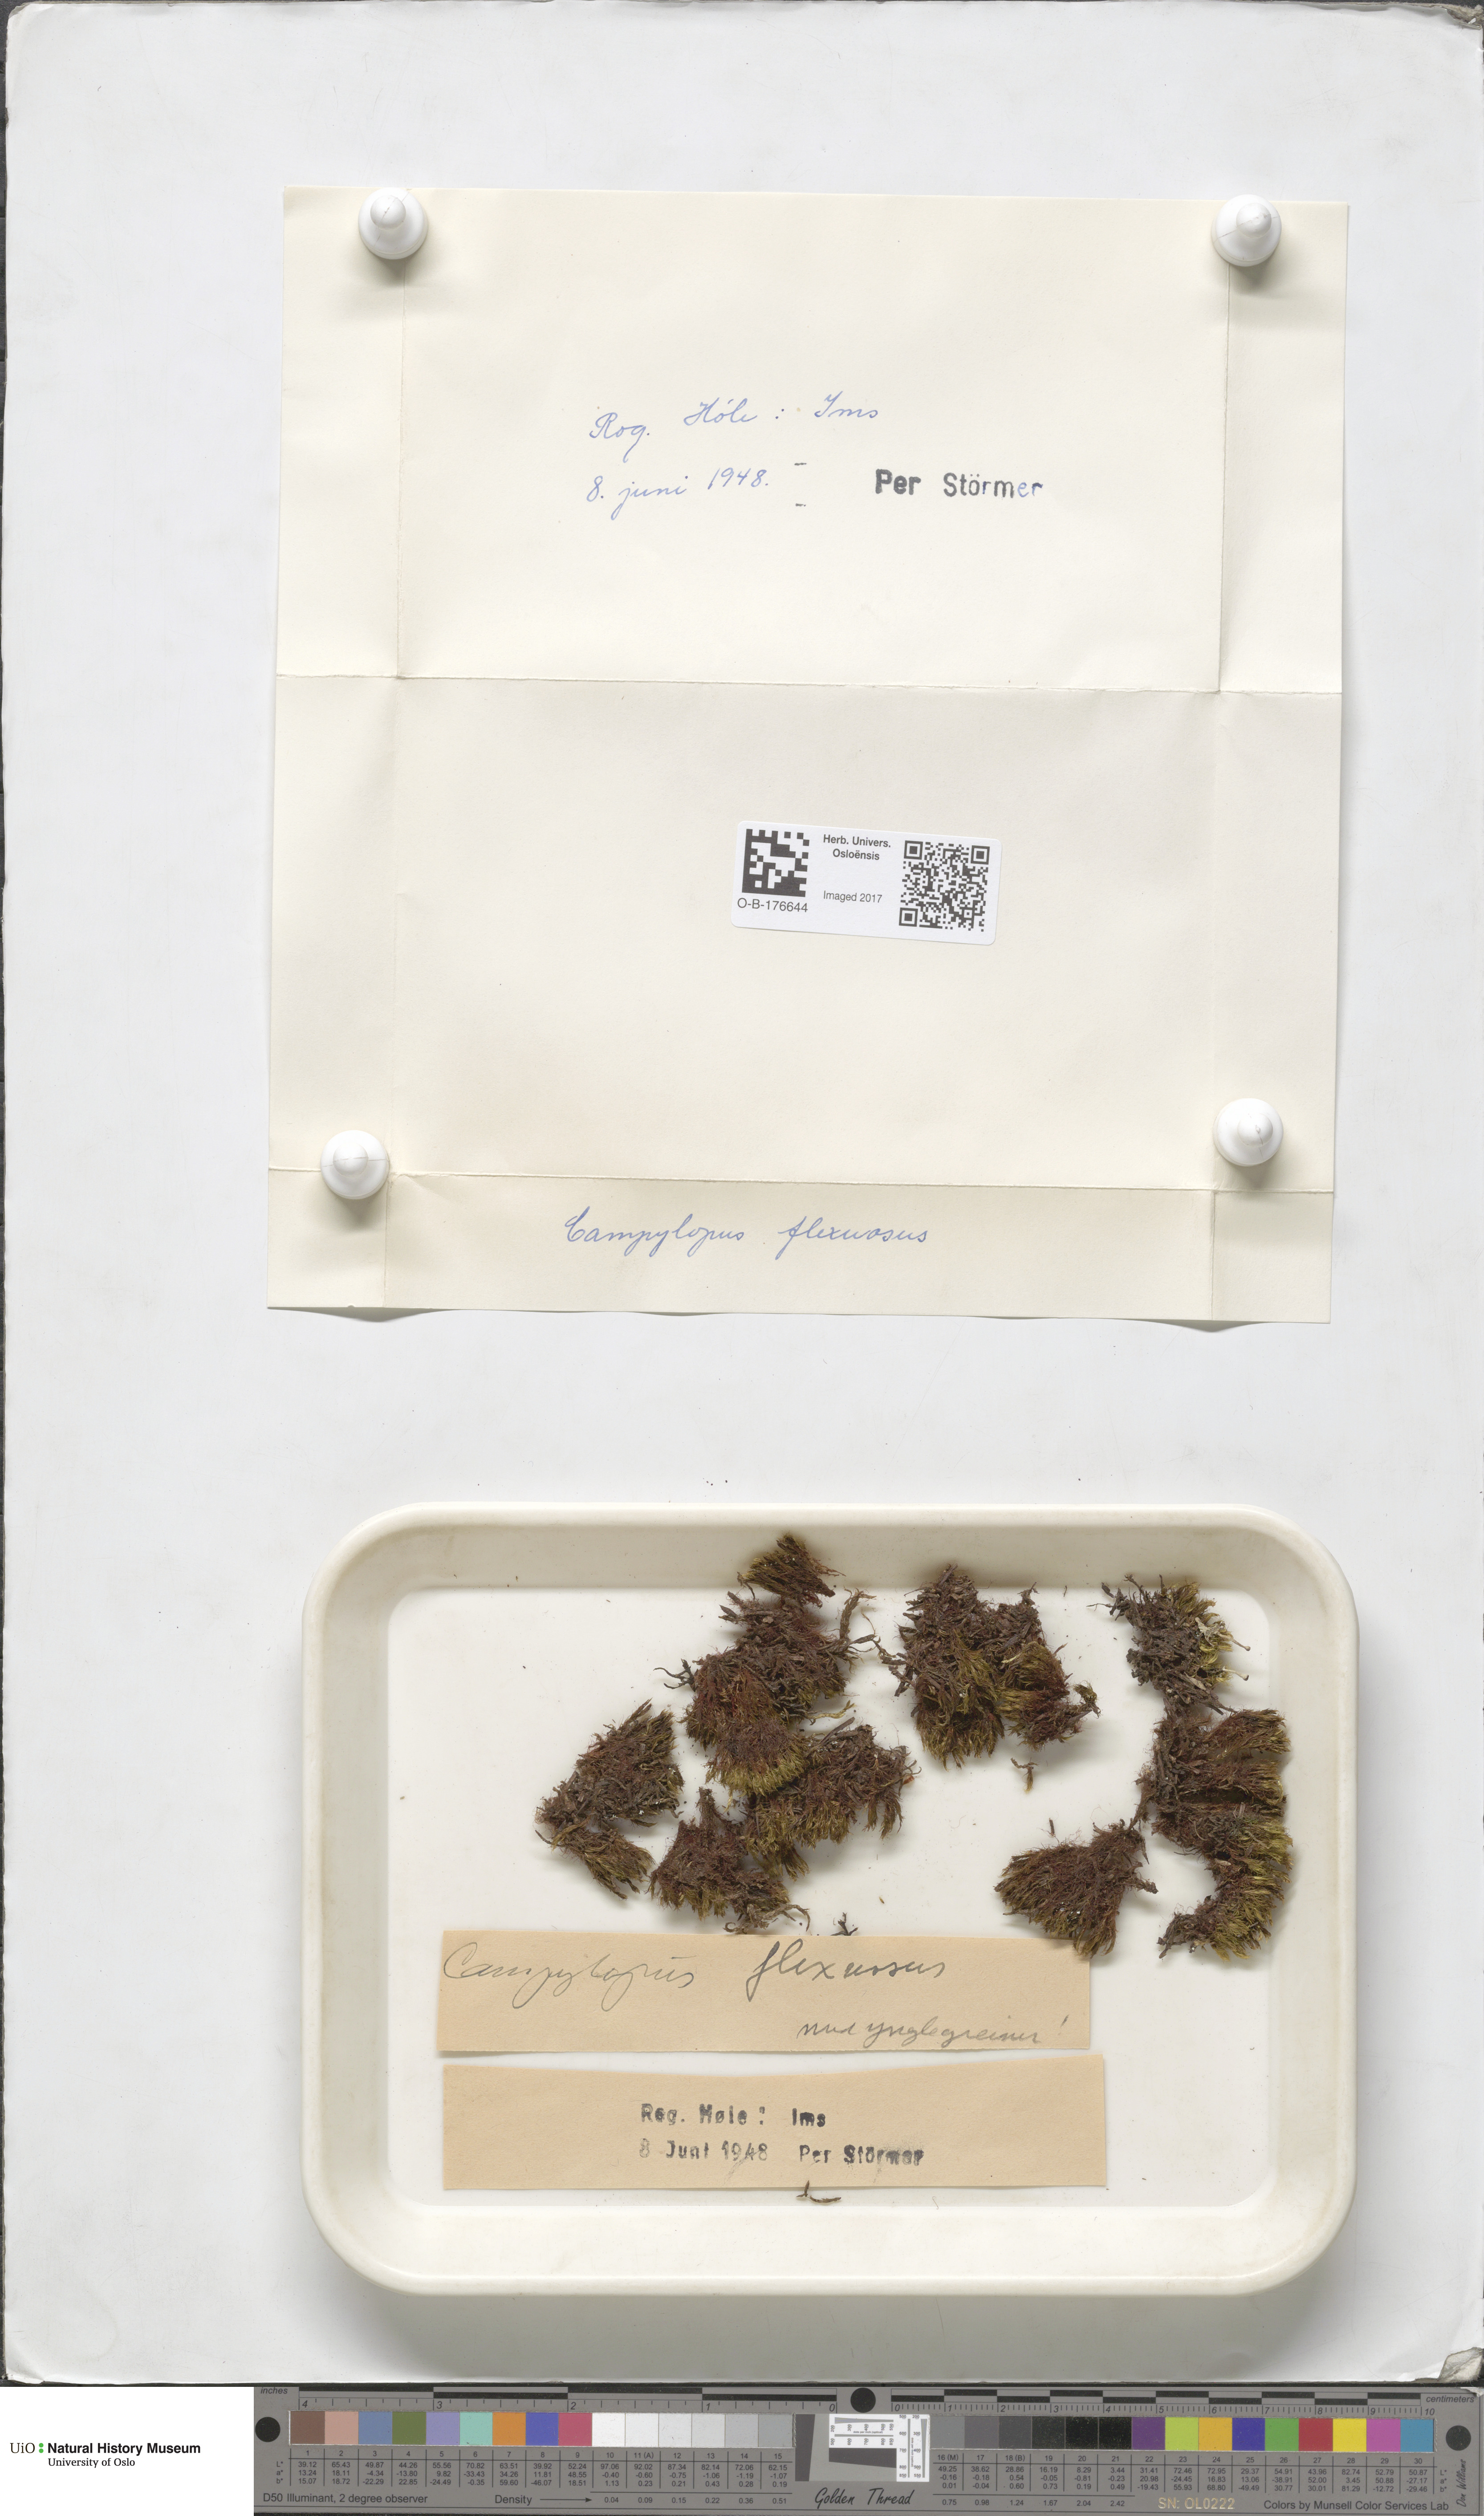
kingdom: Plantae
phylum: Bryophyta
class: Bryopsida
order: Dicranales
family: Leucobryaceae
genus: Campylopus
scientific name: Campylopus flexuosus
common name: Rusty swan-neck moss
